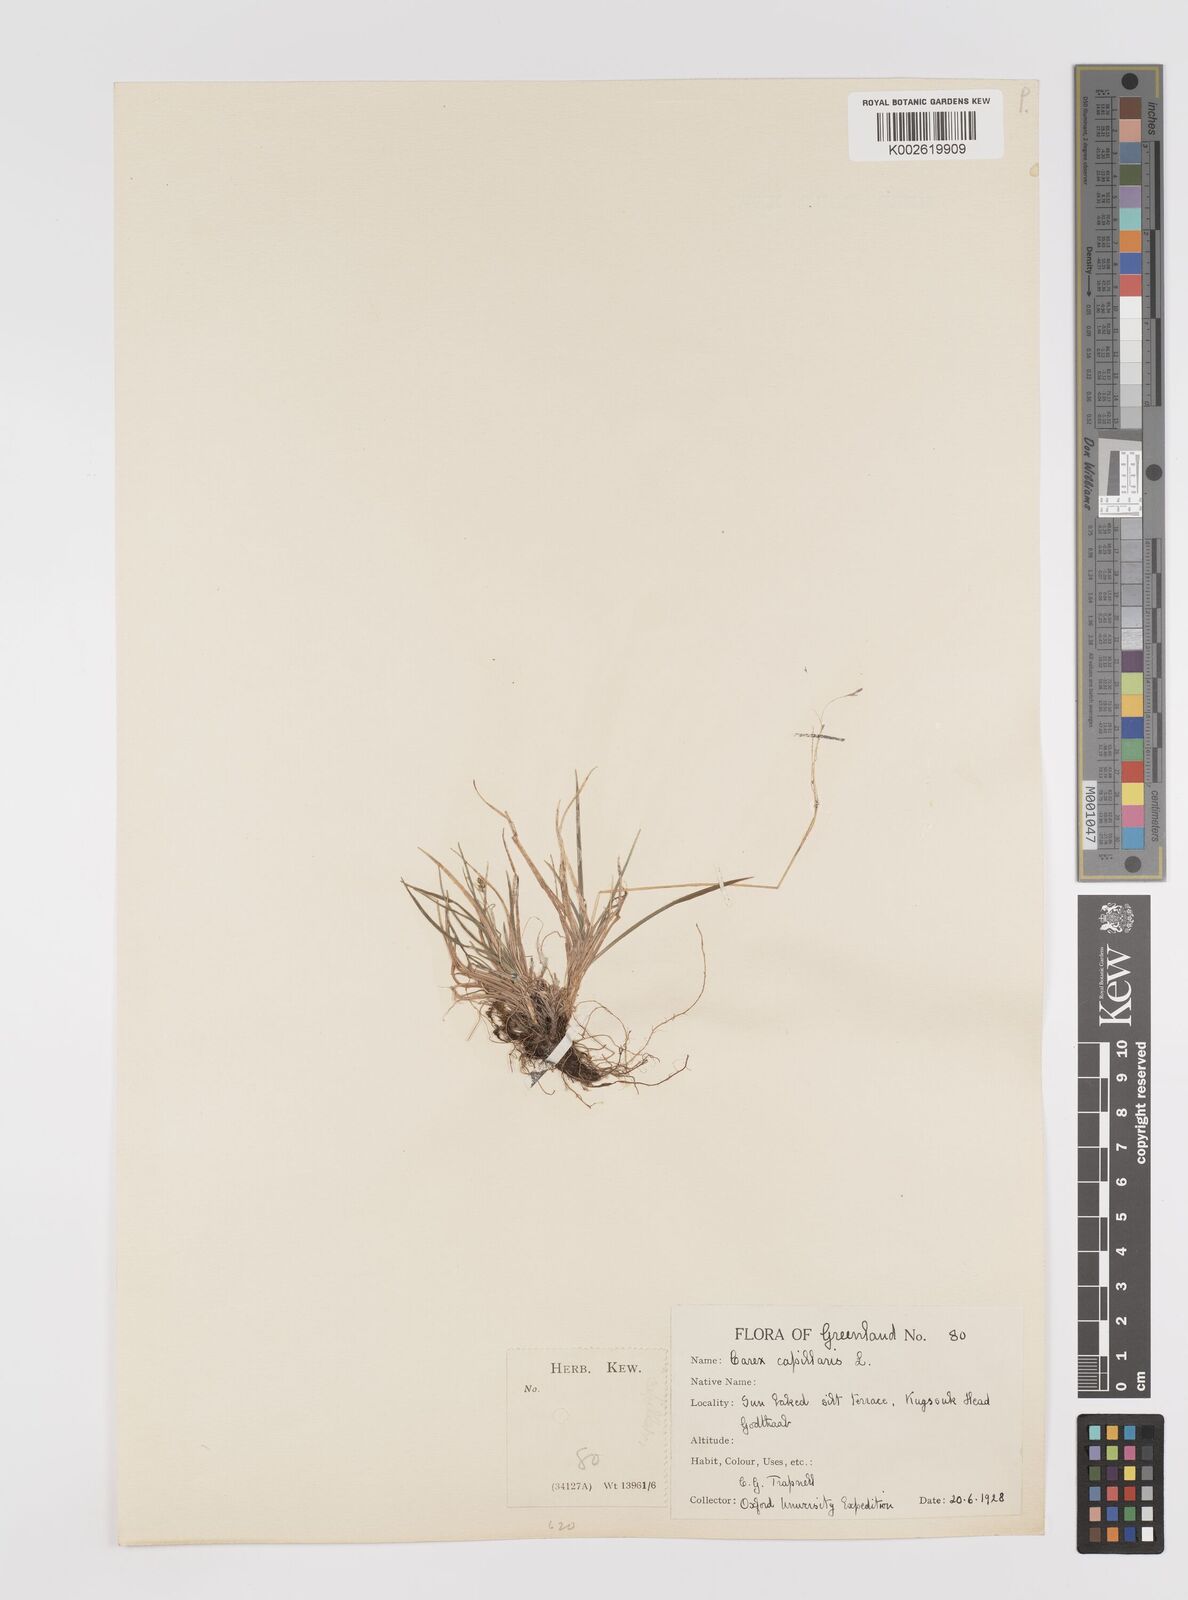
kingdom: Plantae
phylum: Tracheophyta
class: Liliopsida
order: Poales
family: Cyperaceae
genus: Carex
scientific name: Carex capillaris
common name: Hair sedge
